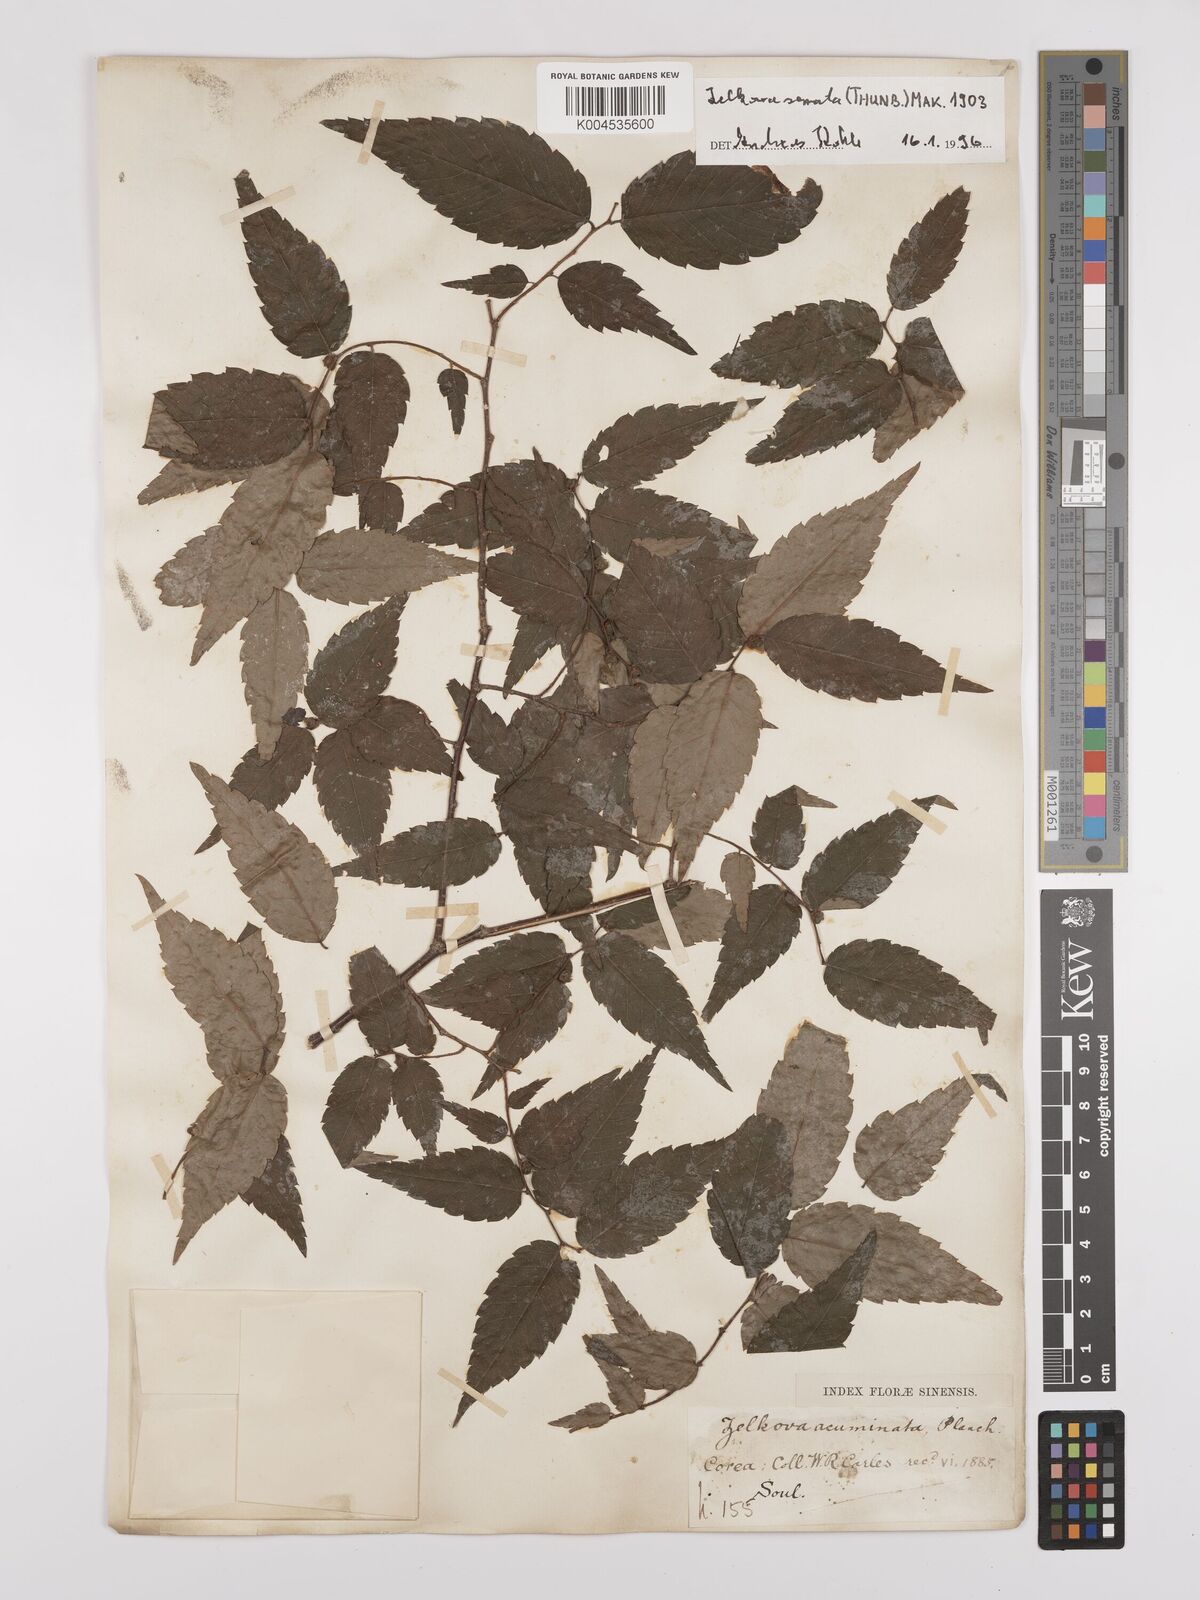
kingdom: Plantae
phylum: Tracheophyta
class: Magnoliopsida
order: Rosales
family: Ulmaceae
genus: Zelkova
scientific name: Zelkova serrata
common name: Japanese zelkova
